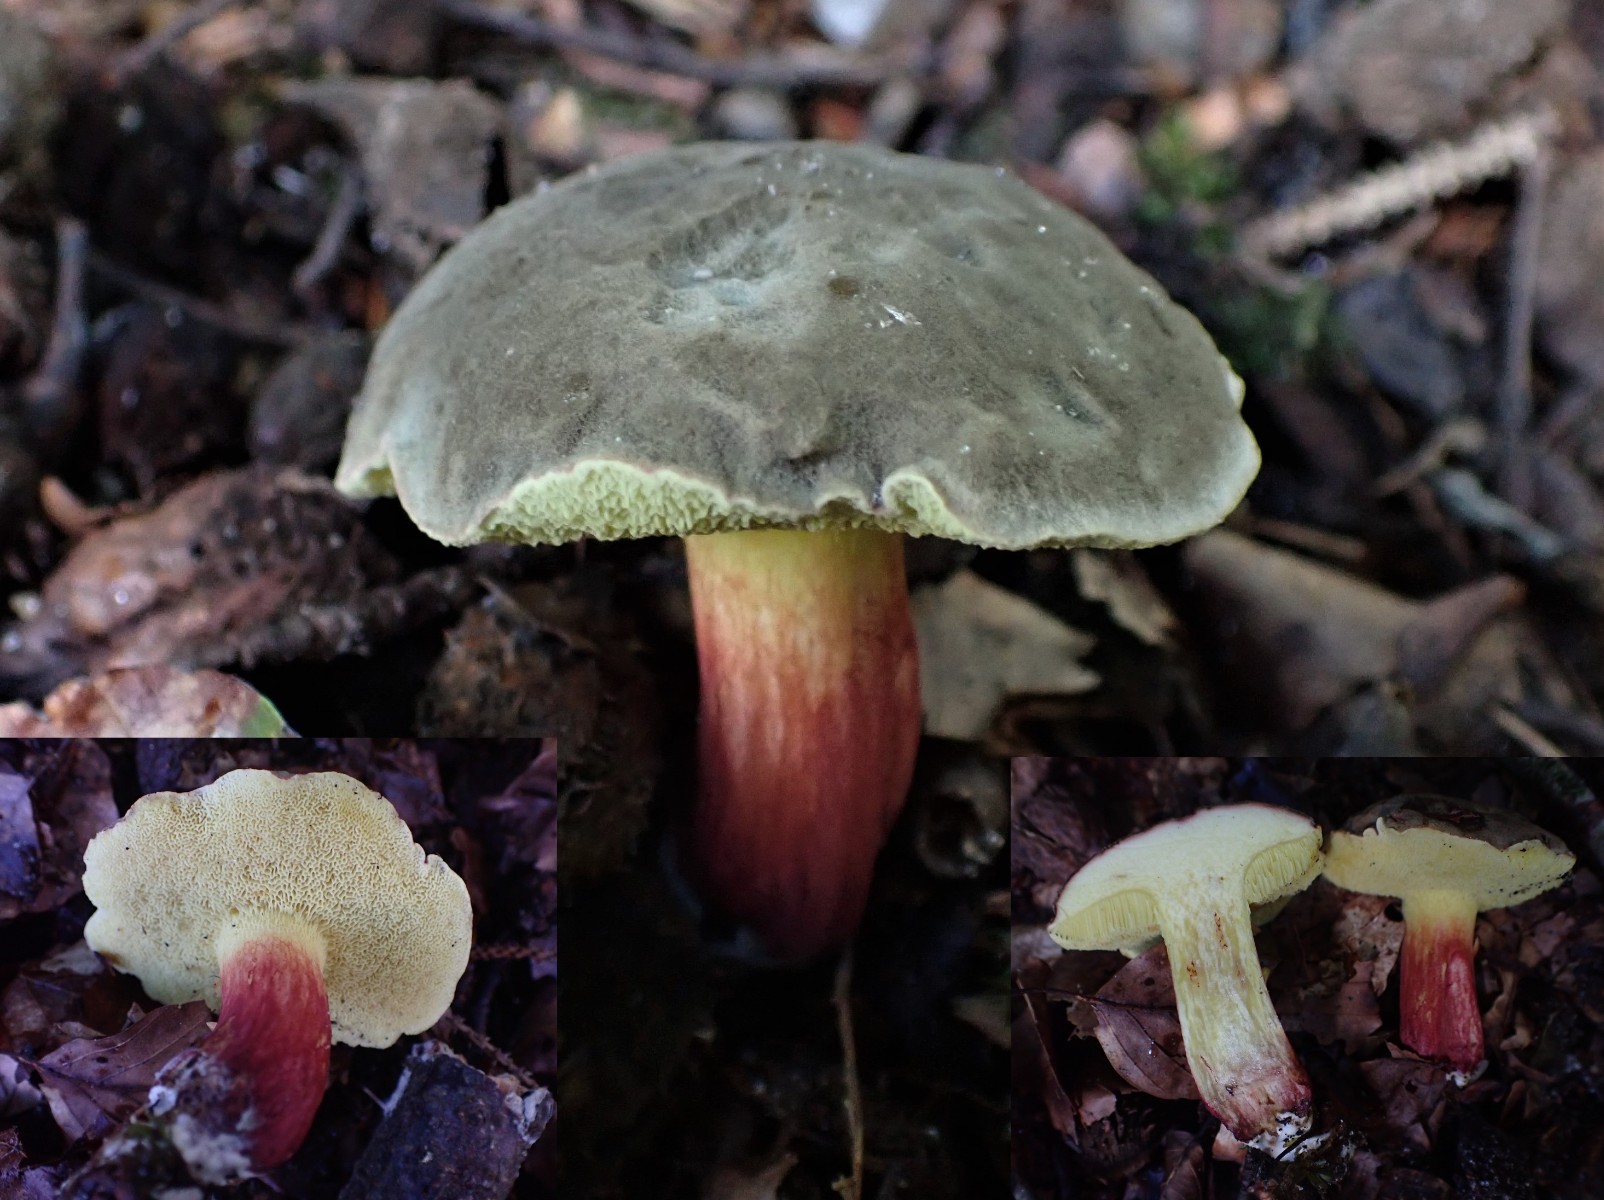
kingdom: Fungi
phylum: Basidiomycota
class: Agaricomycetes
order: Boletales
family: Boletaceae
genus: Xerocomellus
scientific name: Xerocomellus pruinatus
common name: dugget rørhat
